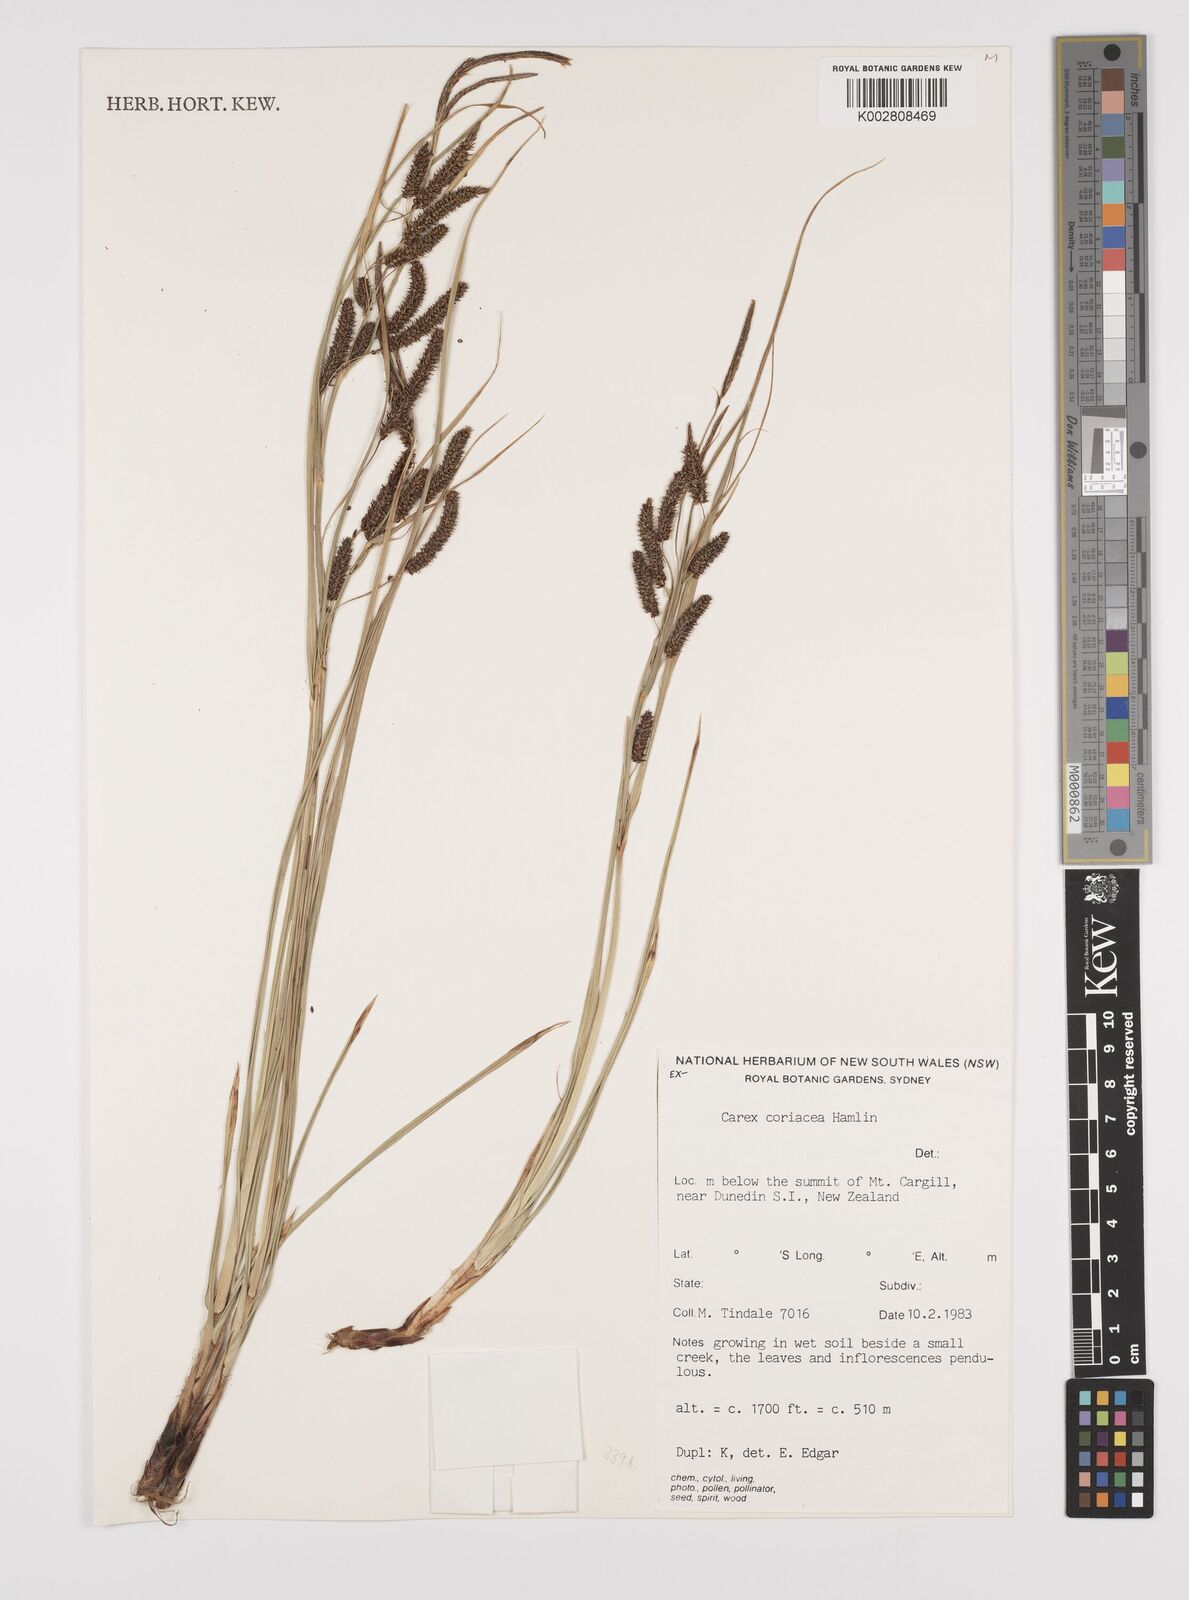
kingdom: Plantae
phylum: Tracheophyta
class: Liliopsida
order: Poales
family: Cyperaceae
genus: Carex
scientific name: Carex coriacea
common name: Rautahi
